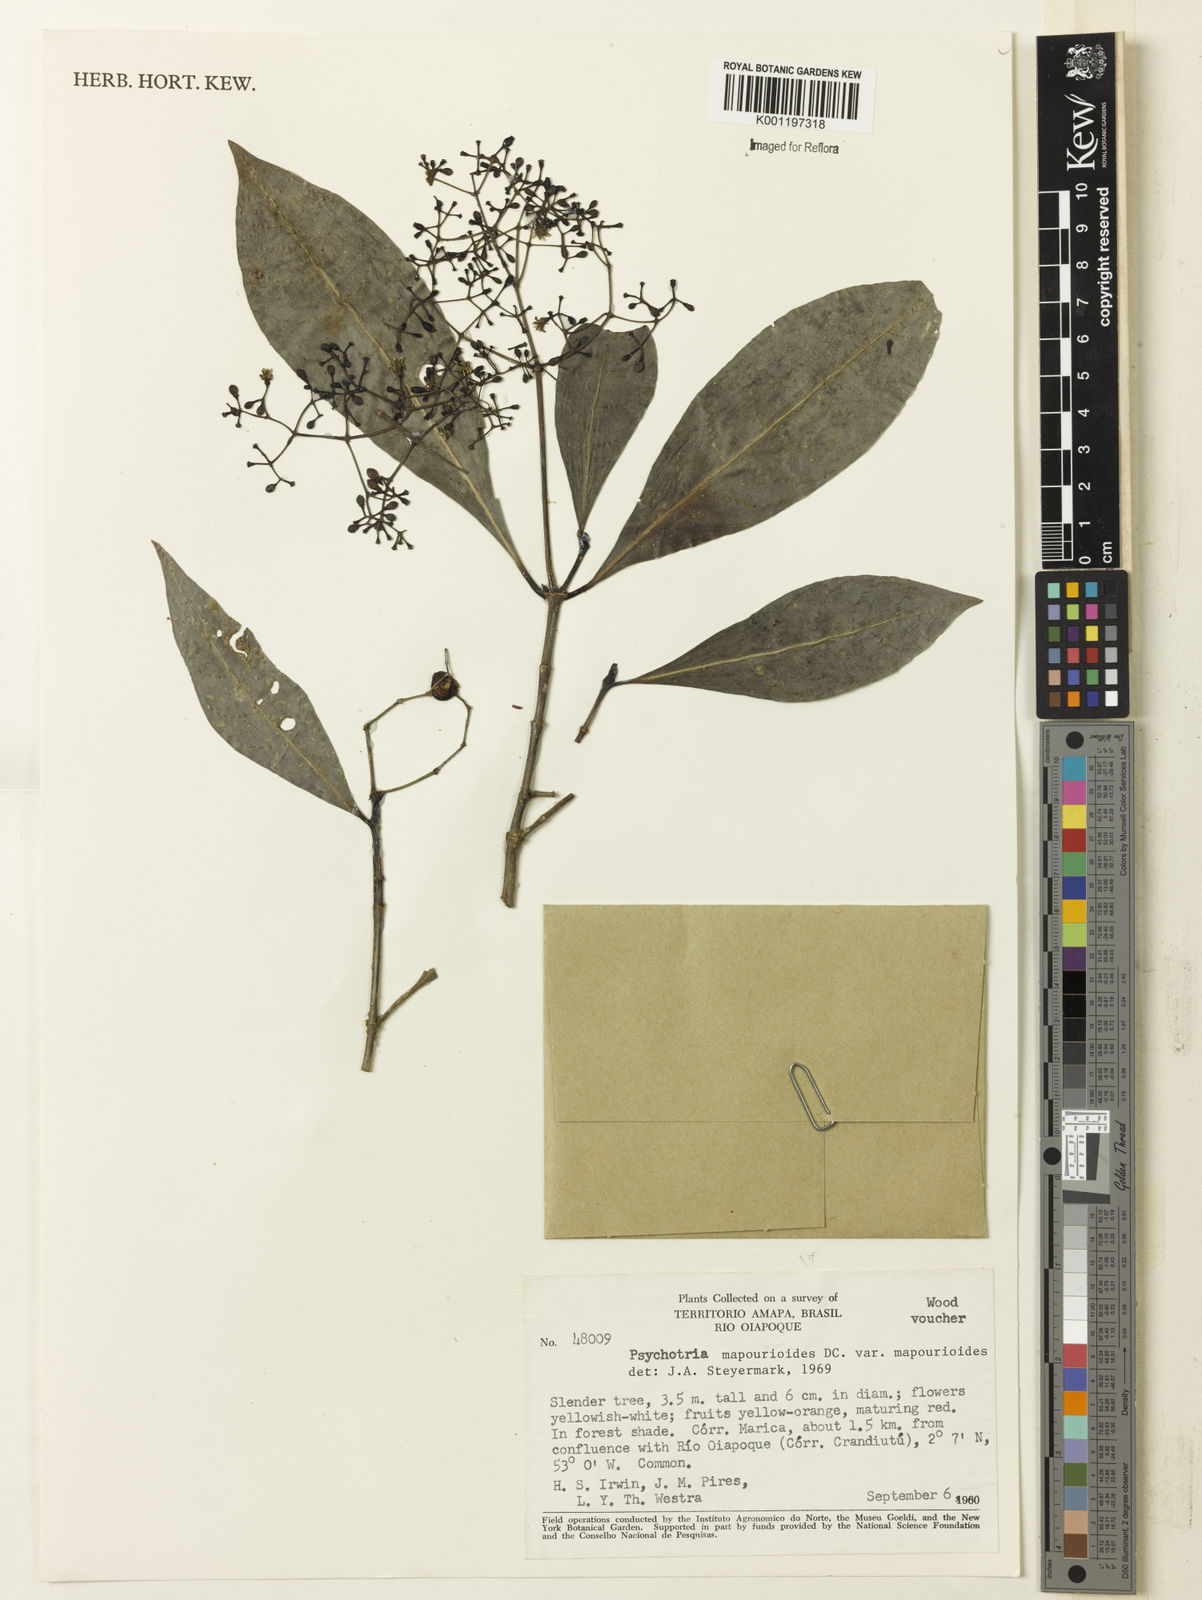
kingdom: Plantae
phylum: Tracheophyta
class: Magnoliopsida
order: Gentianales
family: Rubiaceae
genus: Psychotria
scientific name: Psychotria pedunculosa
